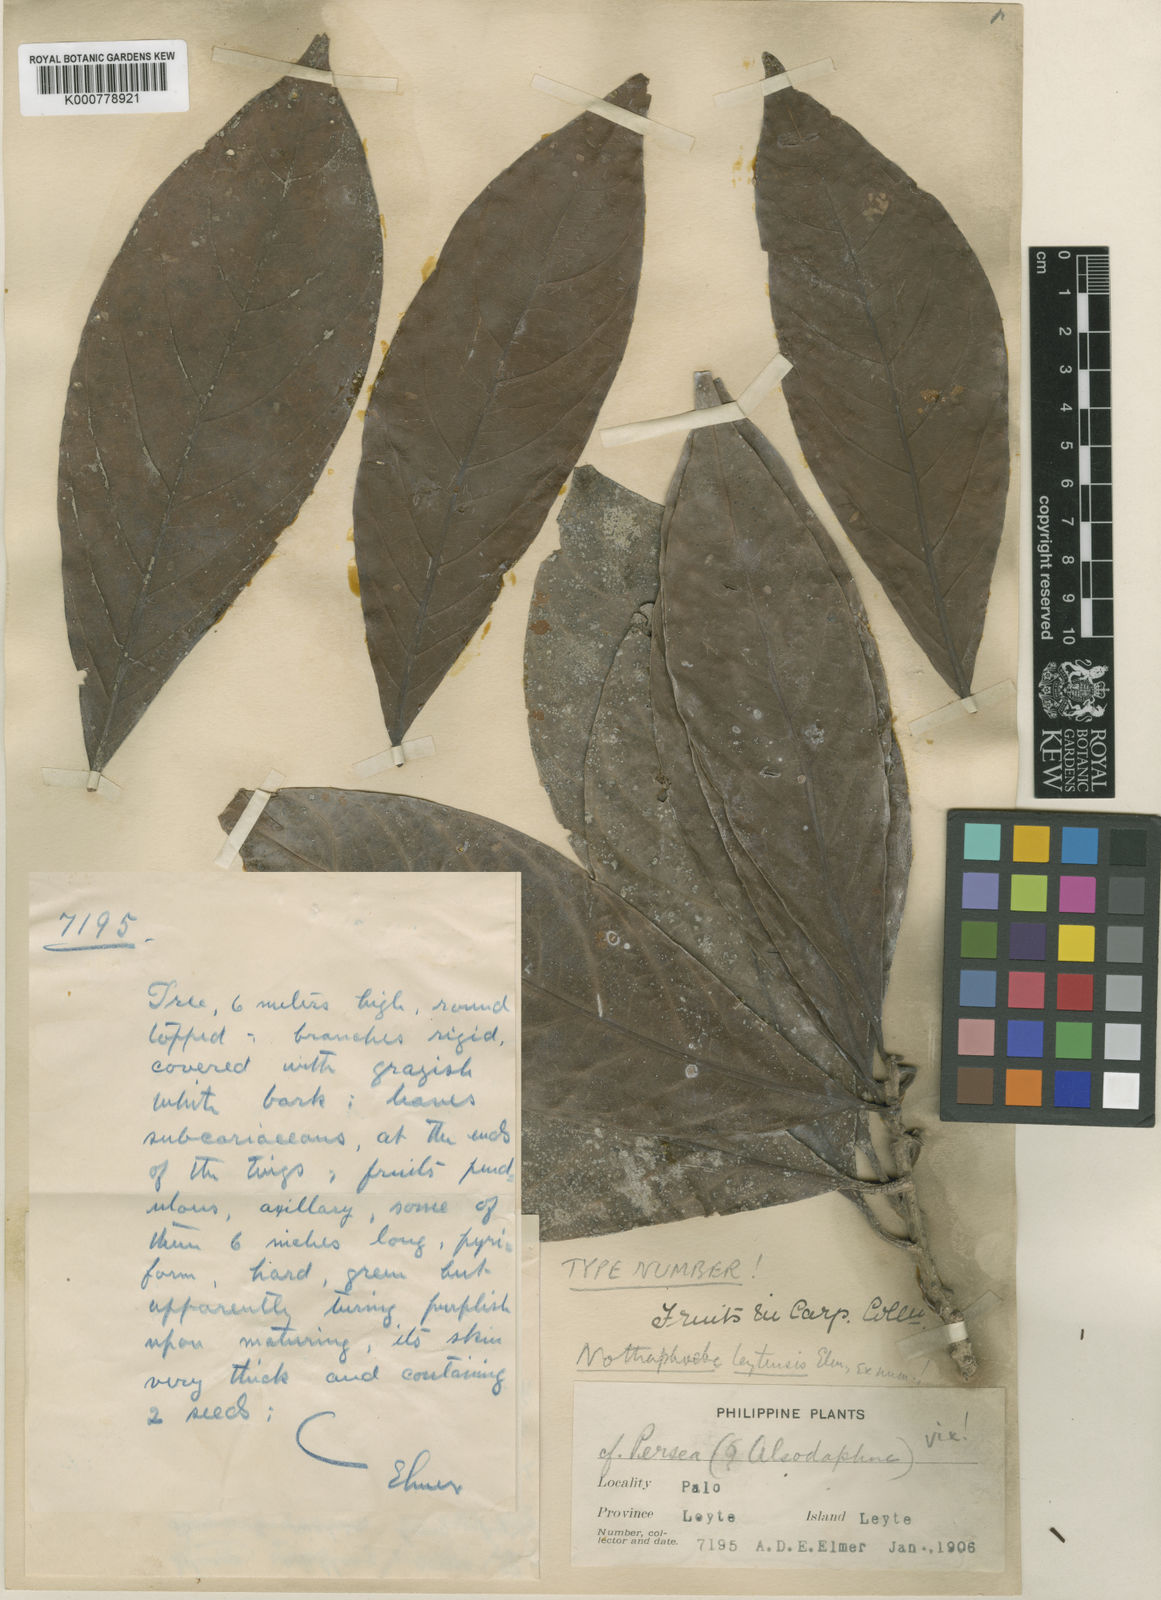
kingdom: Plantae
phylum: Tracheophyta
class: Magnoliopsida
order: Laurales
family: Lauraceae
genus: Nothaphoebe
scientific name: Nothaphoebe leytensis
